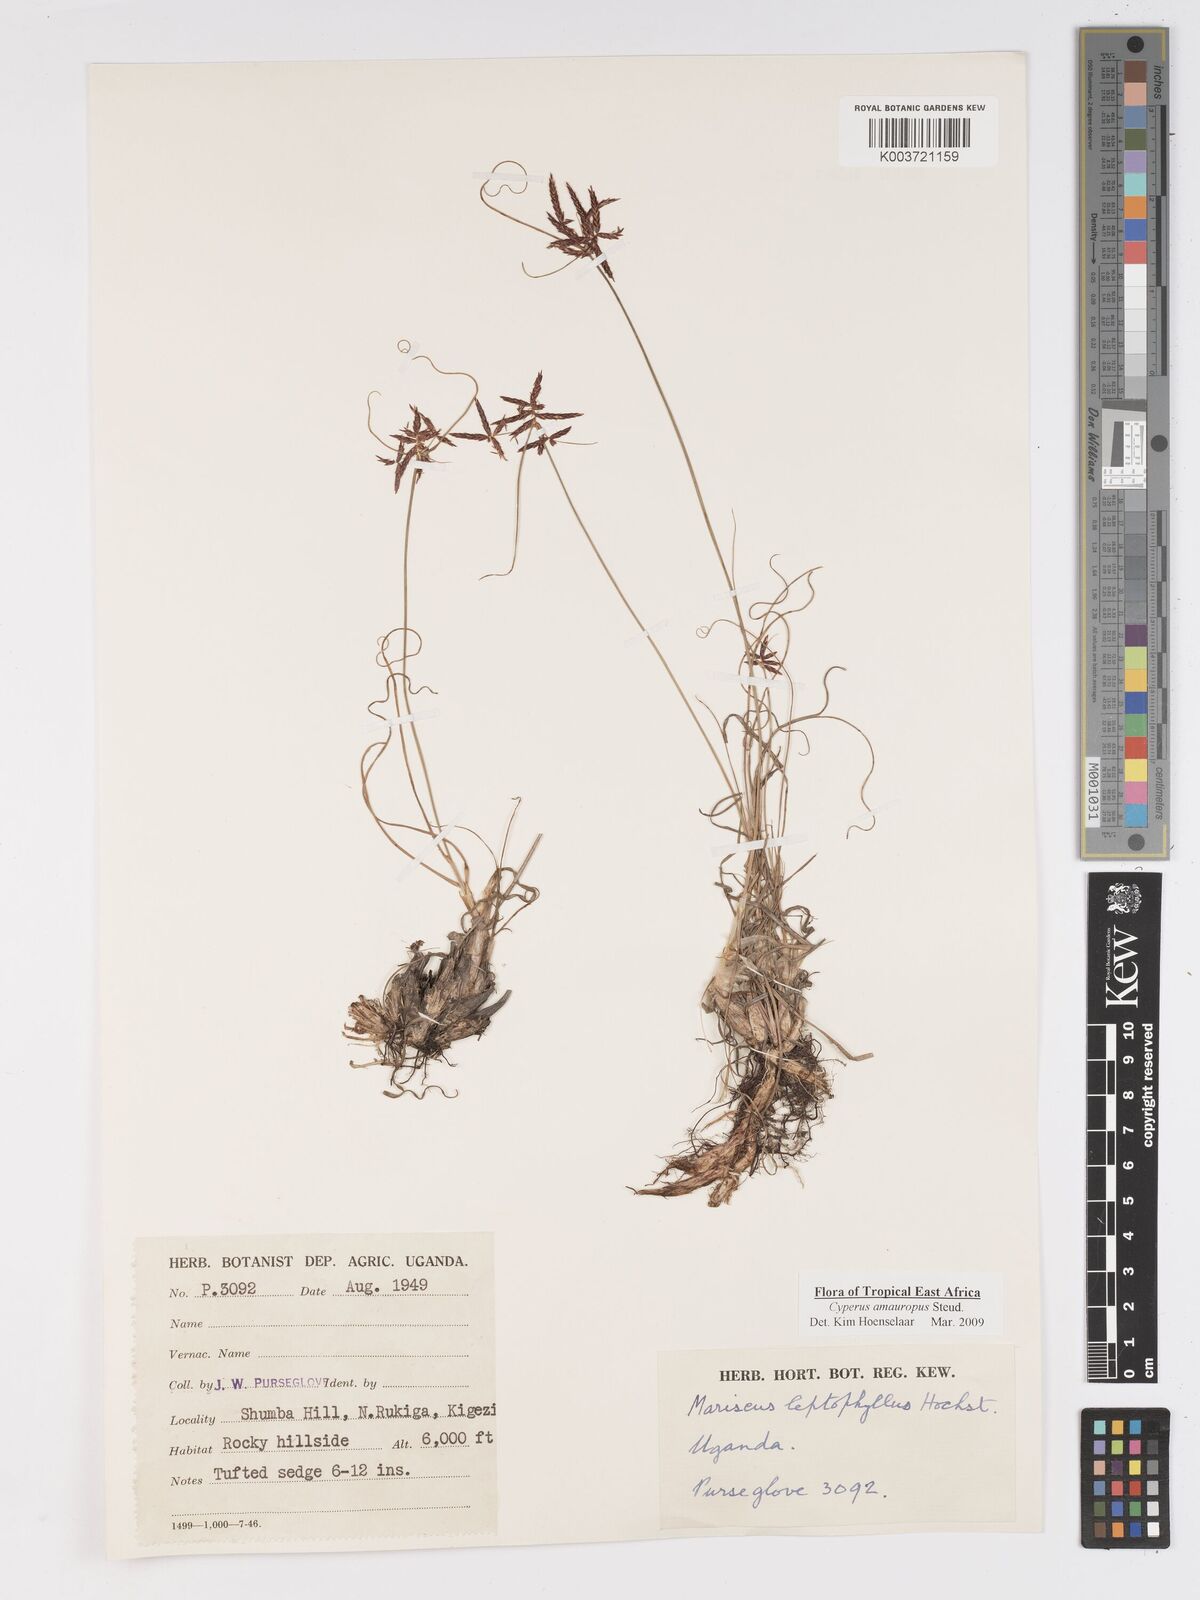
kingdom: Plantae
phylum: Tracheophyta
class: Liliopsida
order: Poales
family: Cyperaceae
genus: Cyperus
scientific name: Cyperus amauropus
